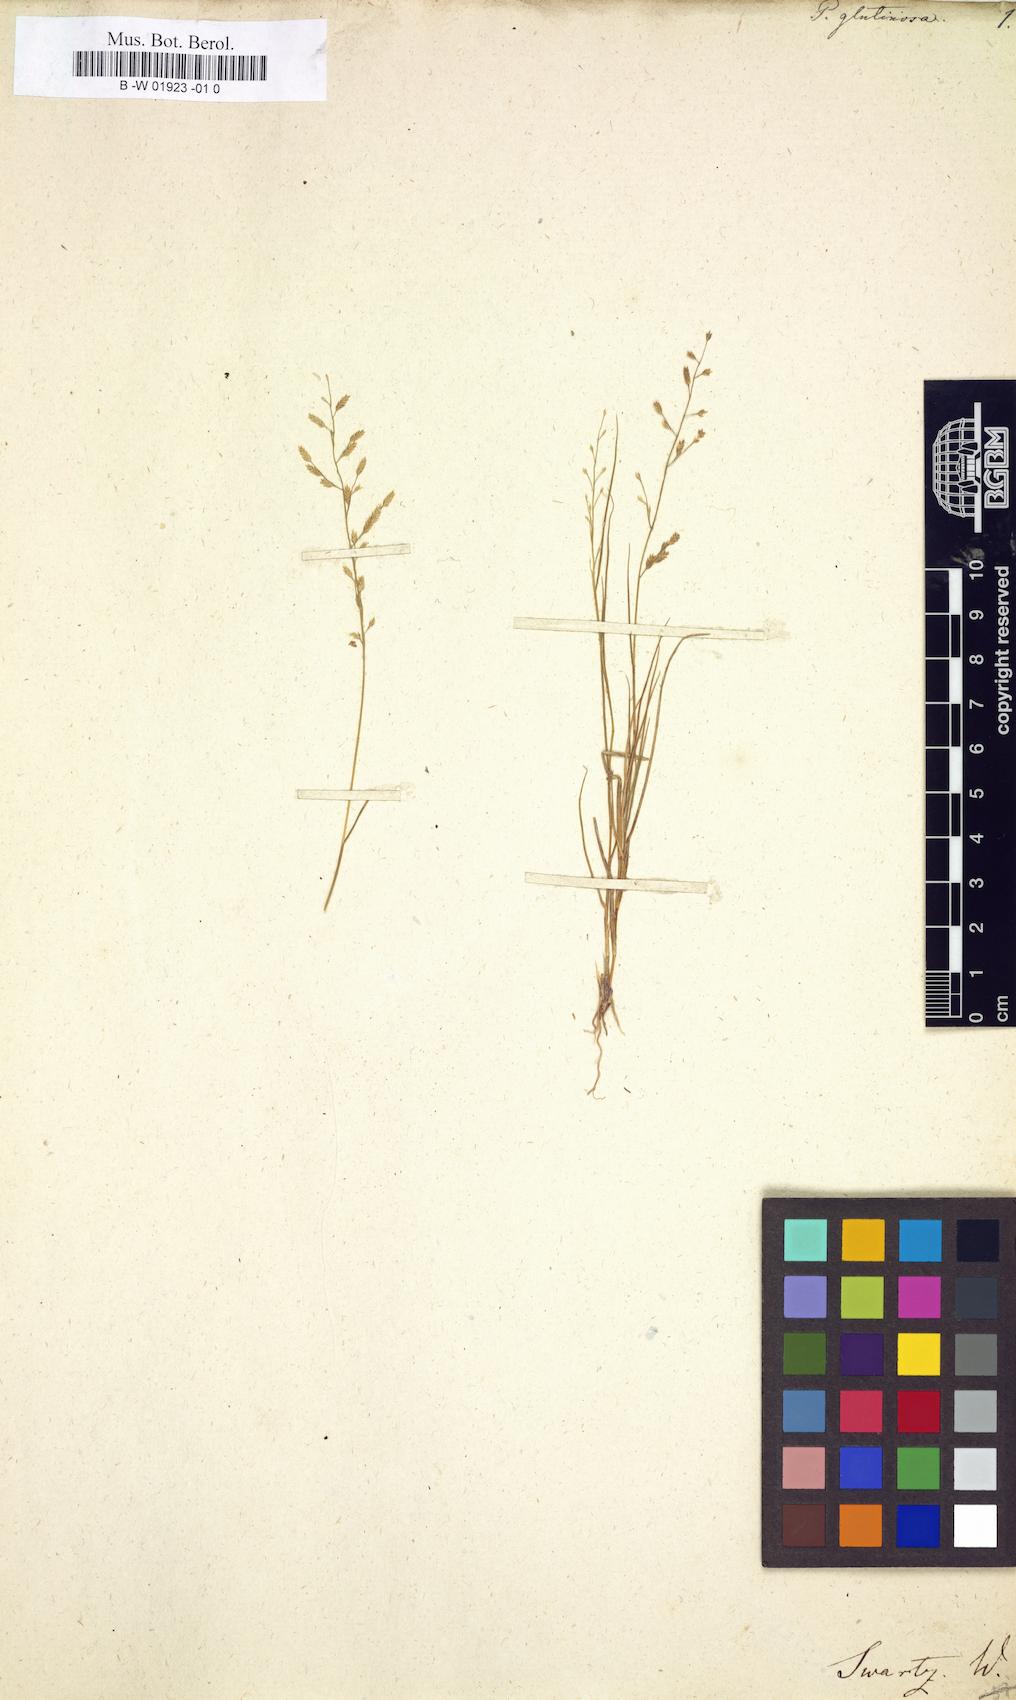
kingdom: Plantae
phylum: Tracheophyta
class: Liliopsida
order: Poales
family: Poaceae
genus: Eragrostis
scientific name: Eragrostis
